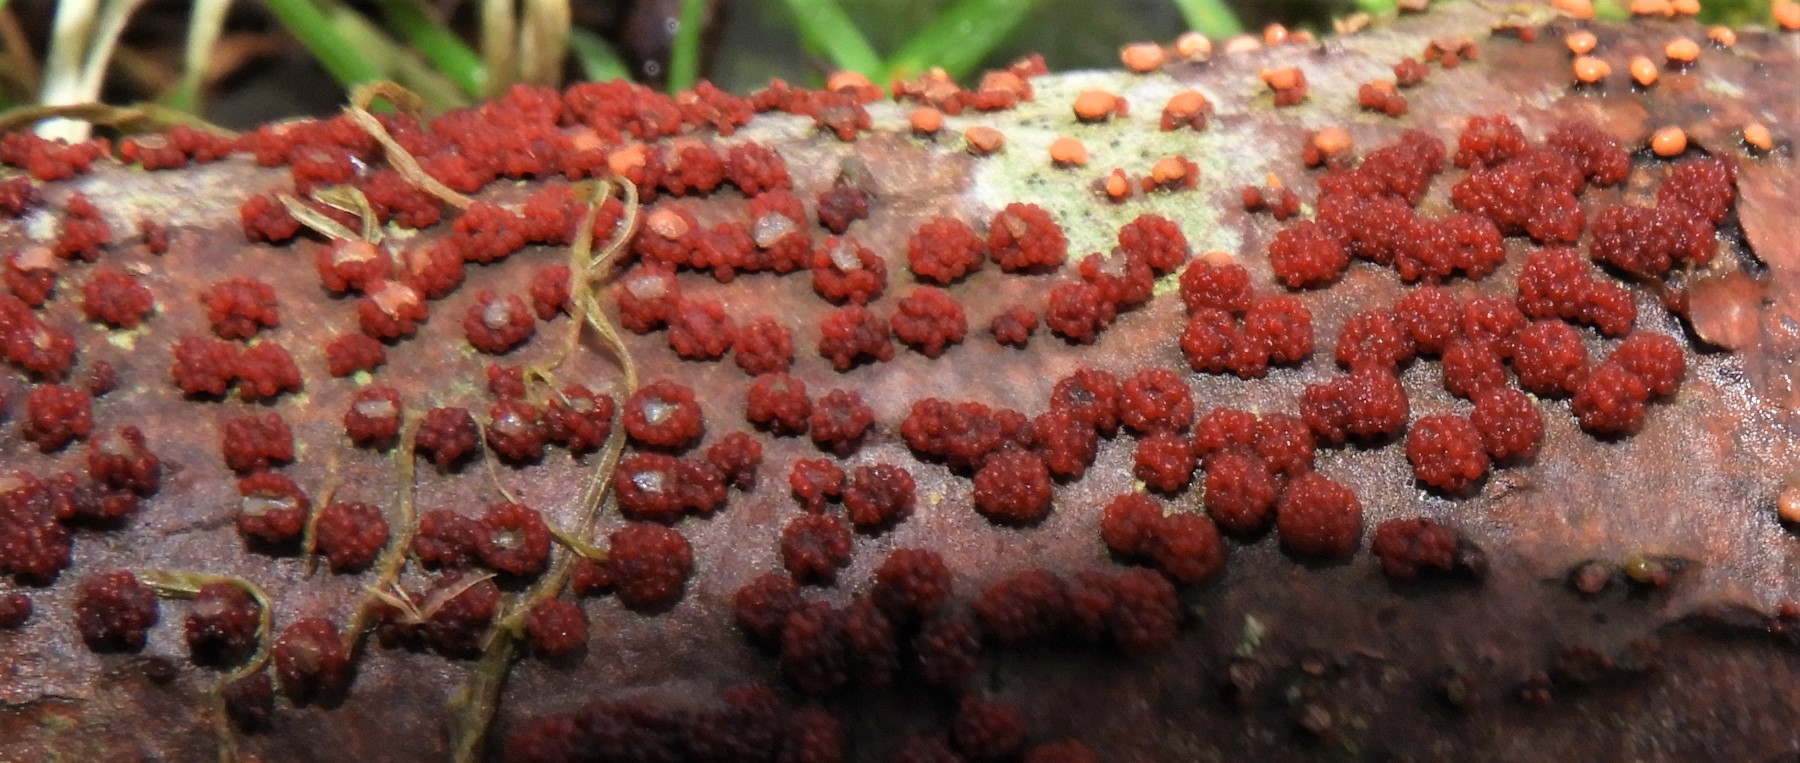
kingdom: Fungi
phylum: Ascomycota
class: Sordariomycetes
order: Hypocreales
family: Nectriaceae
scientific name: Nectriaceae
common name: cinnobersvampfamilien
